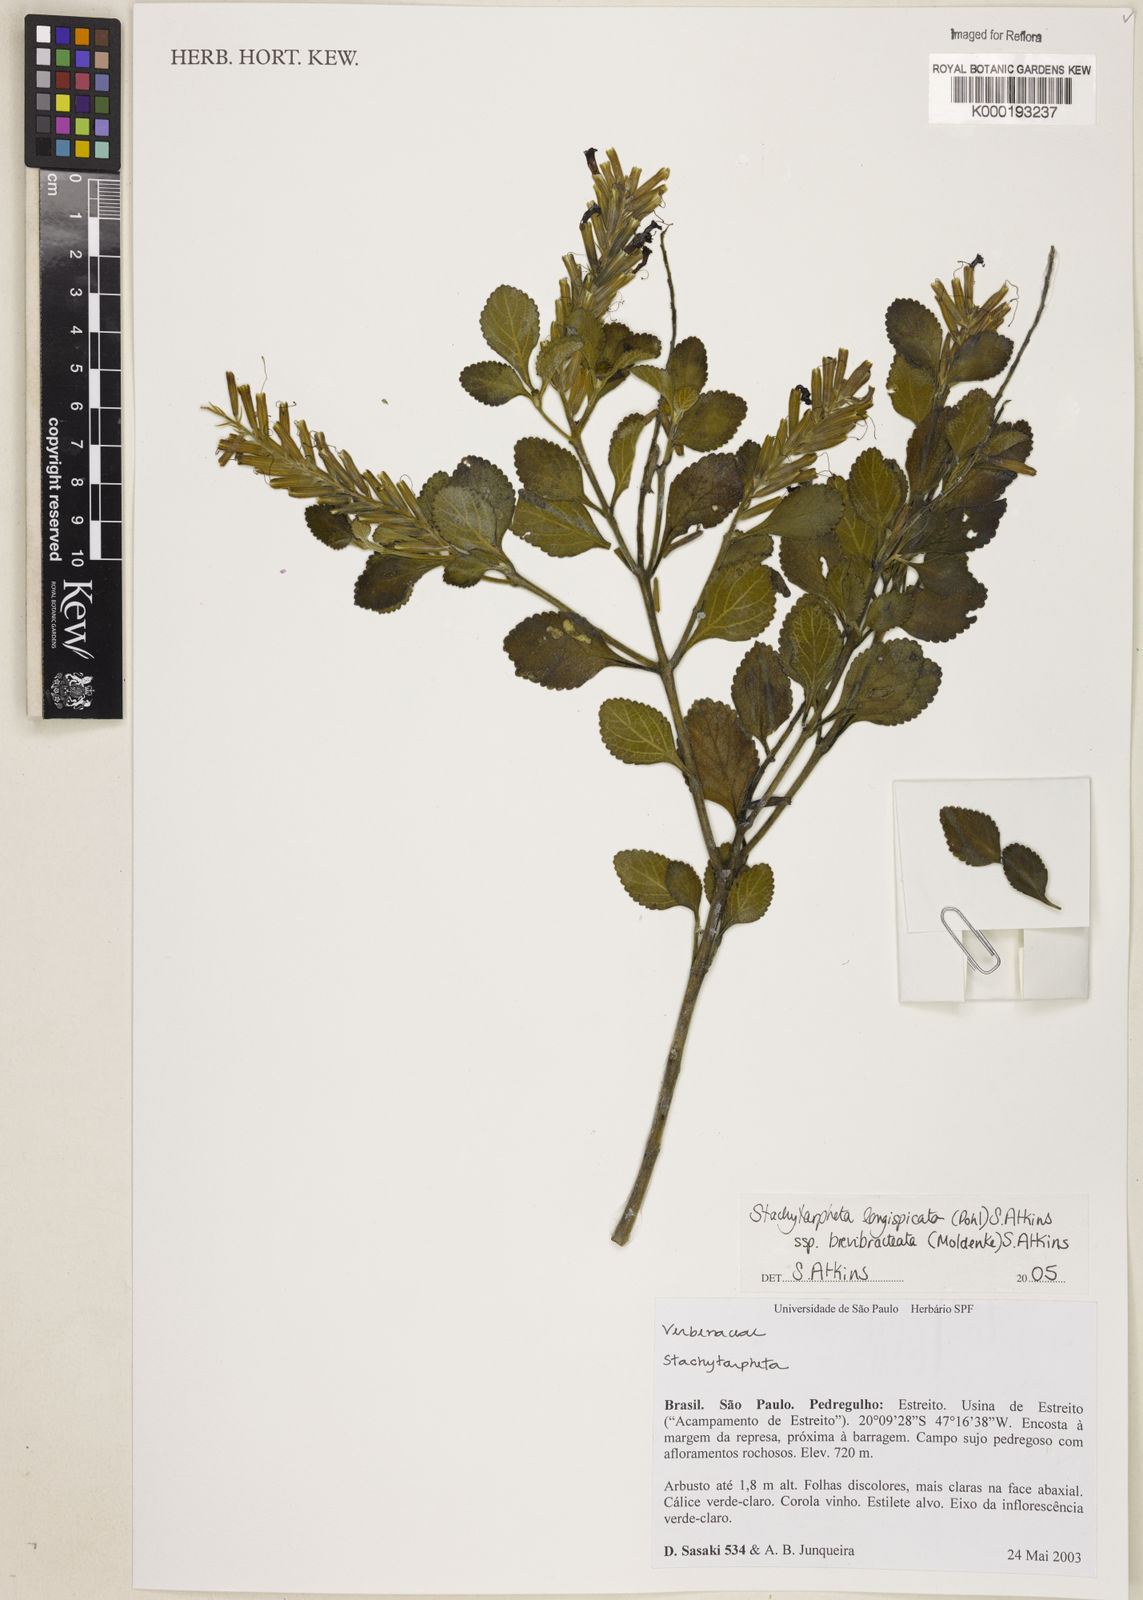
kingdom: Plantae
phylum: Tracheophyta
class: Magnoliopsida
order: Lamiales
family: Verbenaceae
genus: Stachytarpheta
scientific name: Stachytarpheta longispicata
